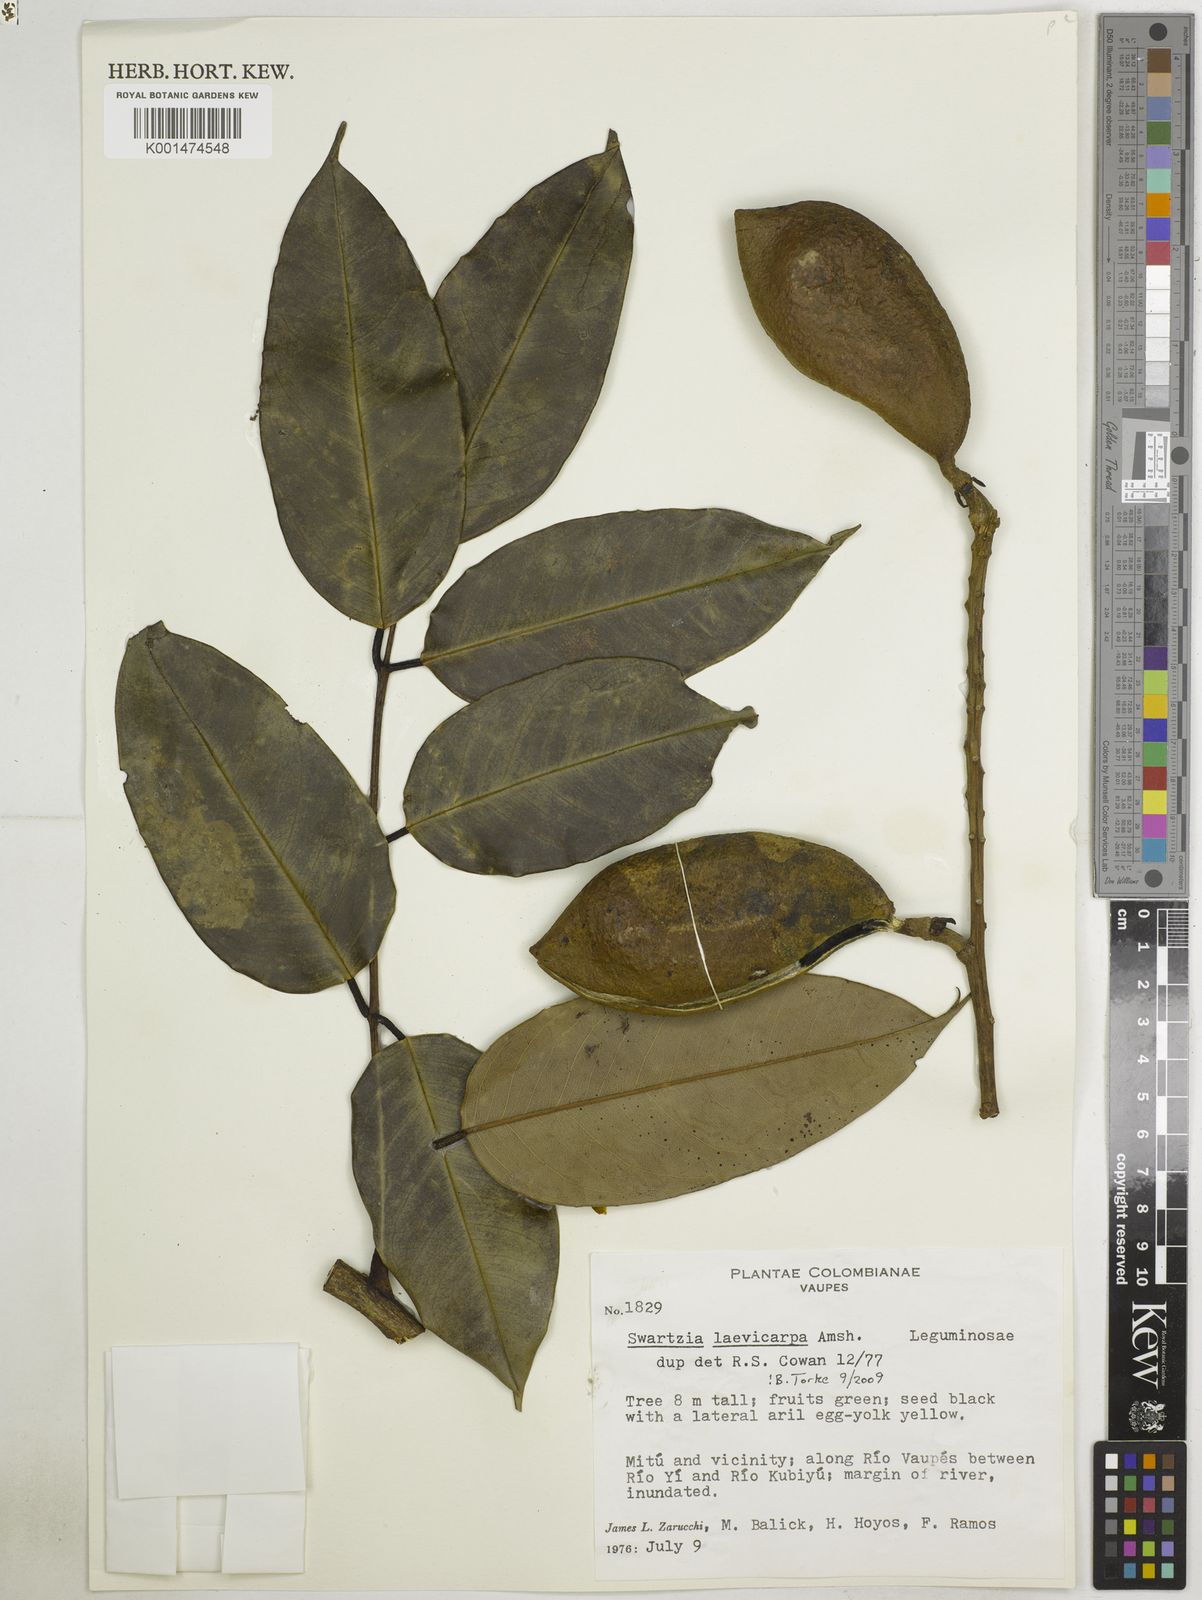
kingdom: Plantae
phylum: Tracheophyta
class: Magnoliopsida
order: Fabales
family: Fabaceae
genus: Swartzia
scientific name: Swartzia laevicarpa
